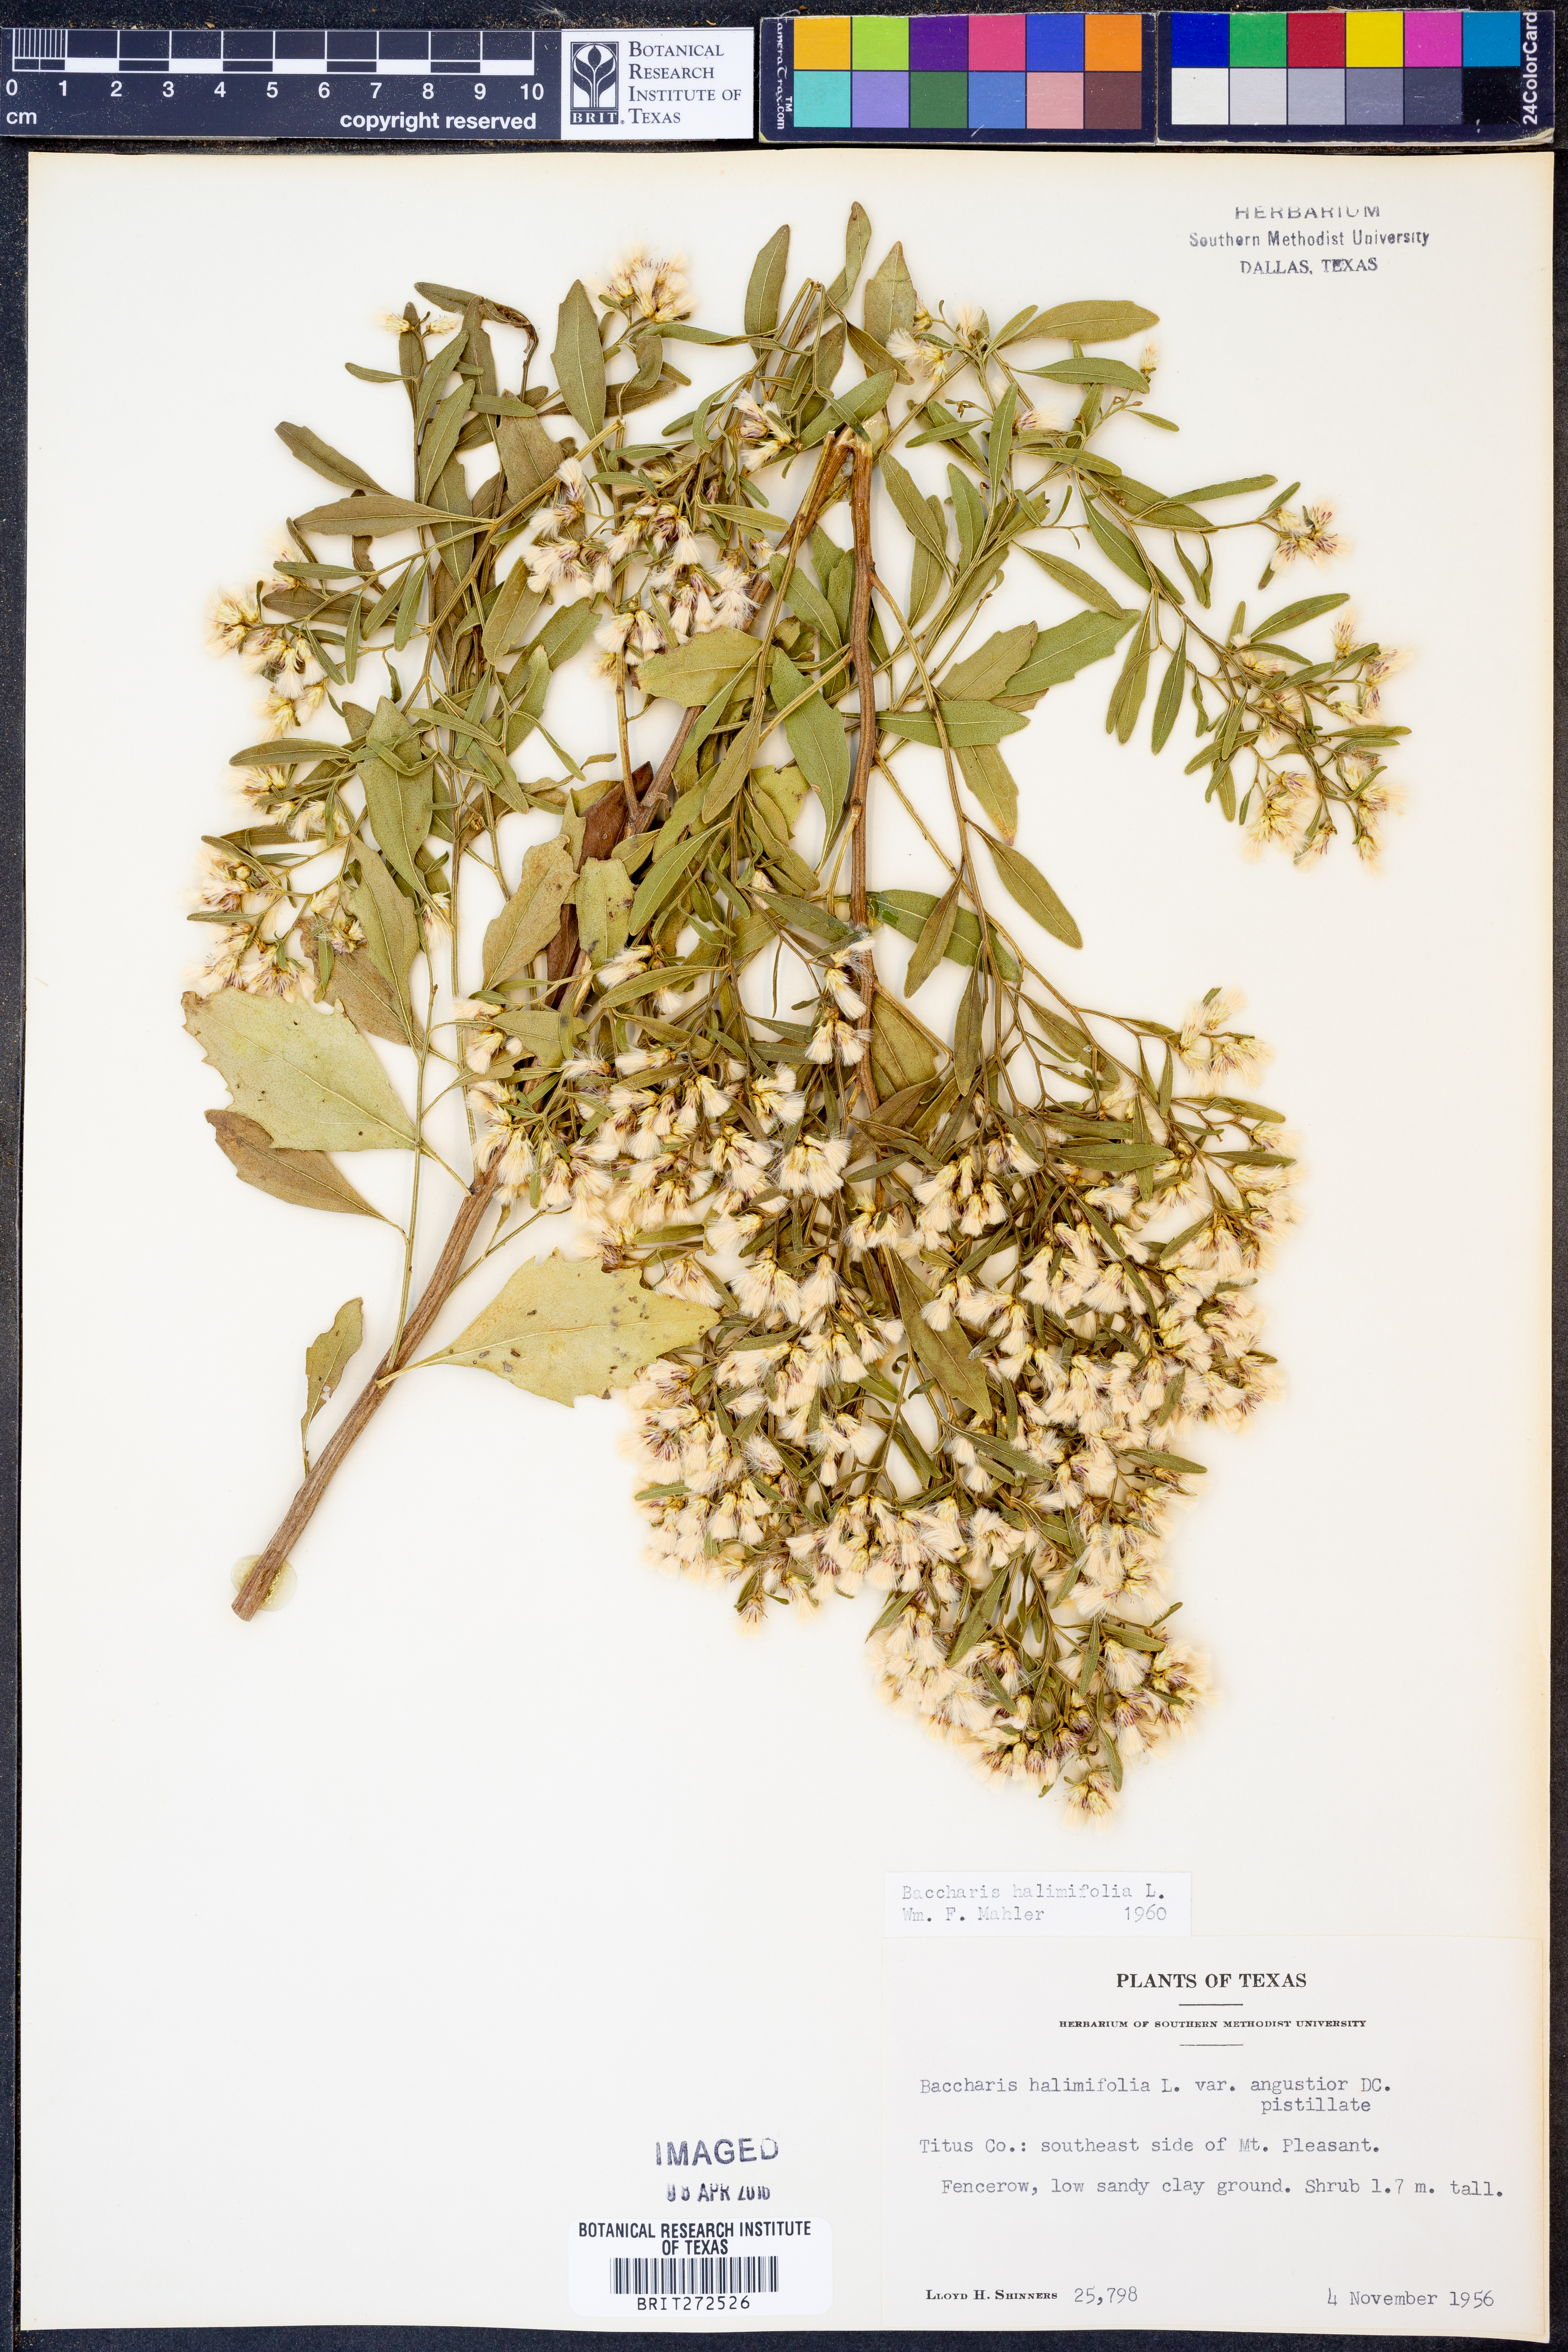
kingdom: Plantae
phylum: Tracheophyta
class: Magnoliopsida
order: Asterales
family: Asteraceae
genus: Nidorella
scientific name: Nidorella ivifolia
